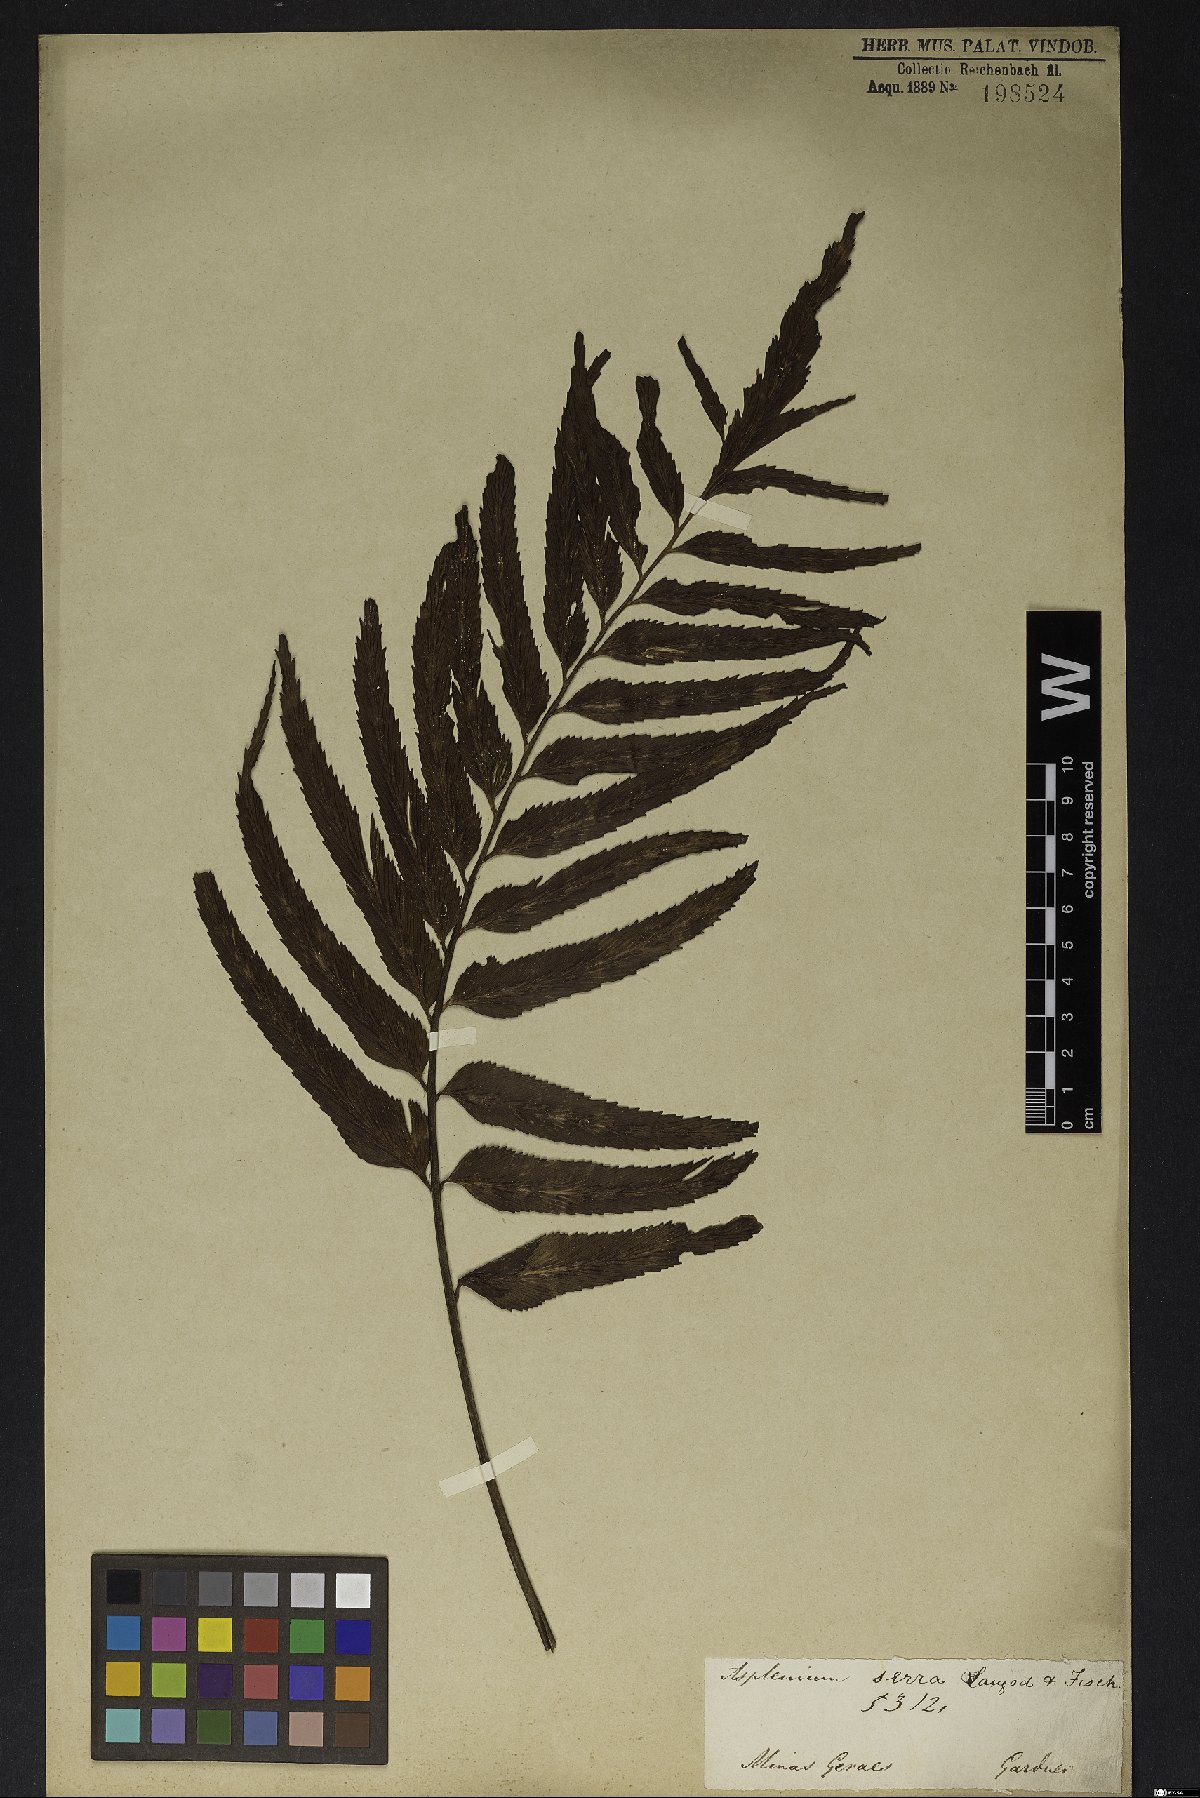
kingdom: Plantae
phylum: Tracheophyta
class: Polypodiopsida
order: Polypodiales
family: Aspleniaceae
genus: Asplenium
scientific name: Asplenium serra
